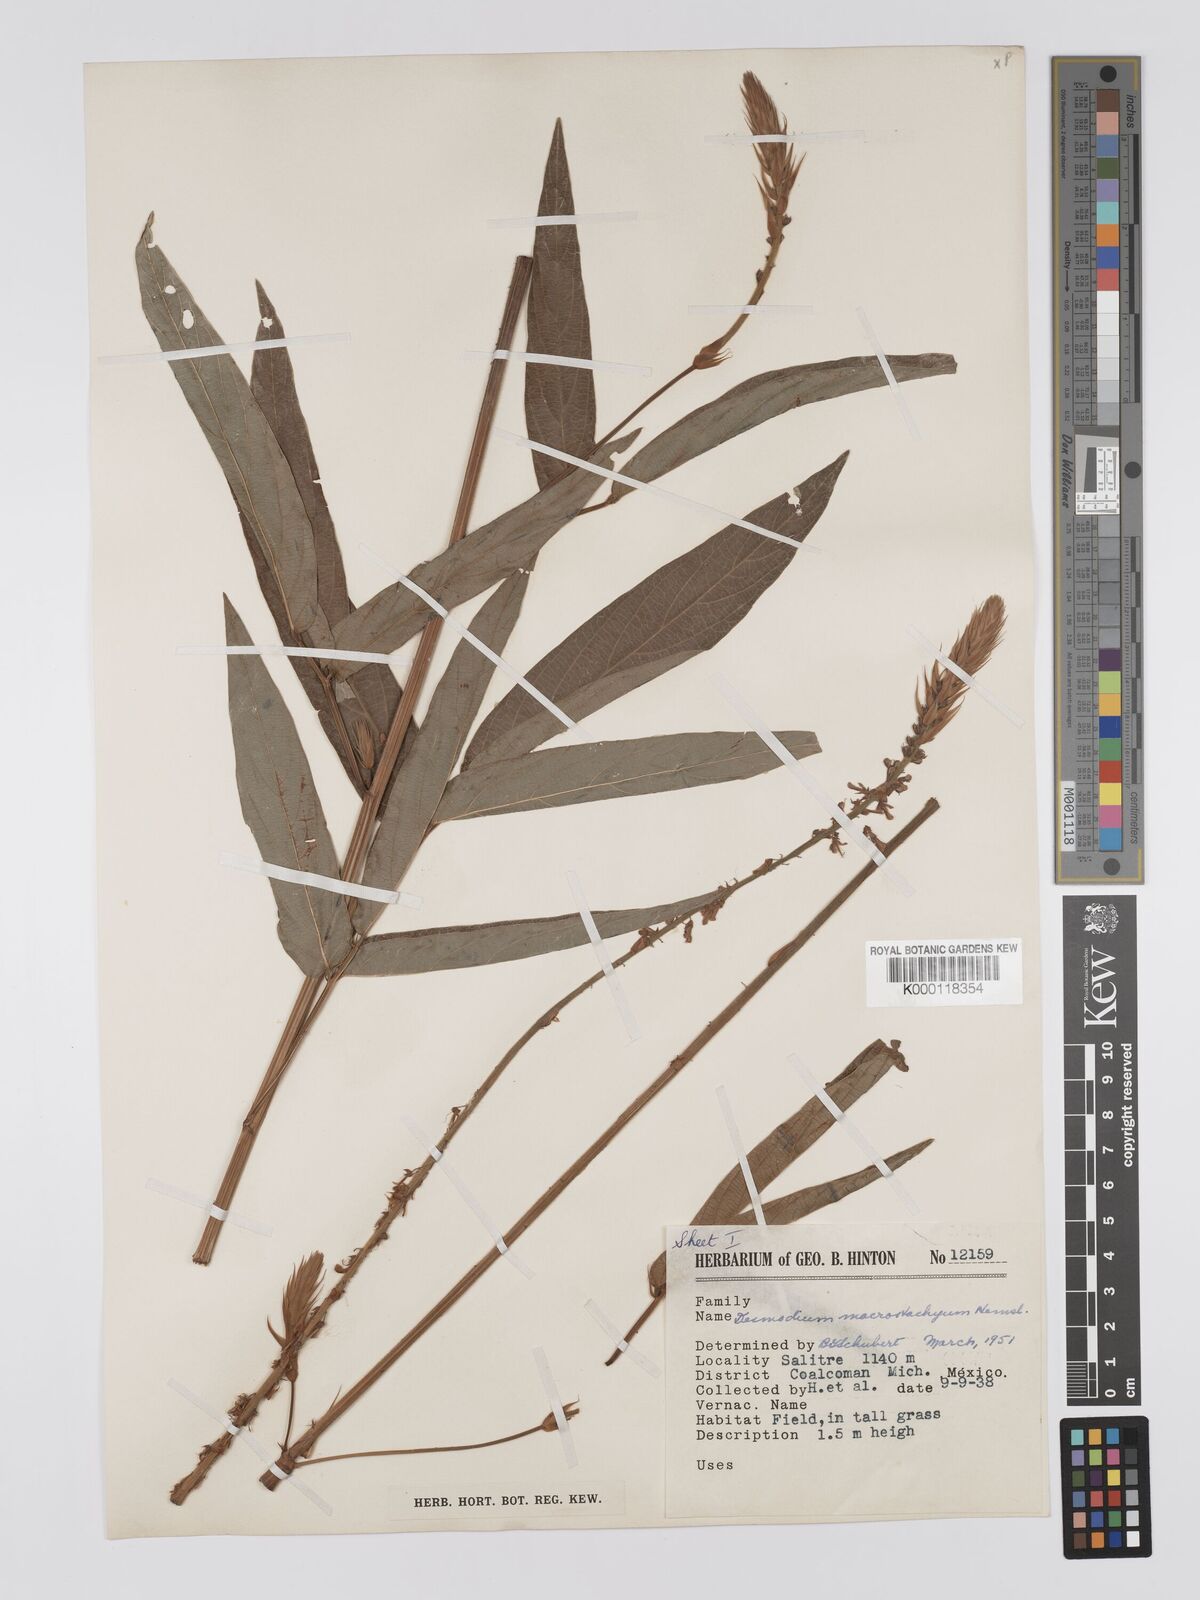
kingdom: Plantae
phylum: Tracheophyta
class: Magnoliopsida
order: Fabales
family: Fabaceae
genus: Desmodium
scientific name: Desmodium macrostachyum
